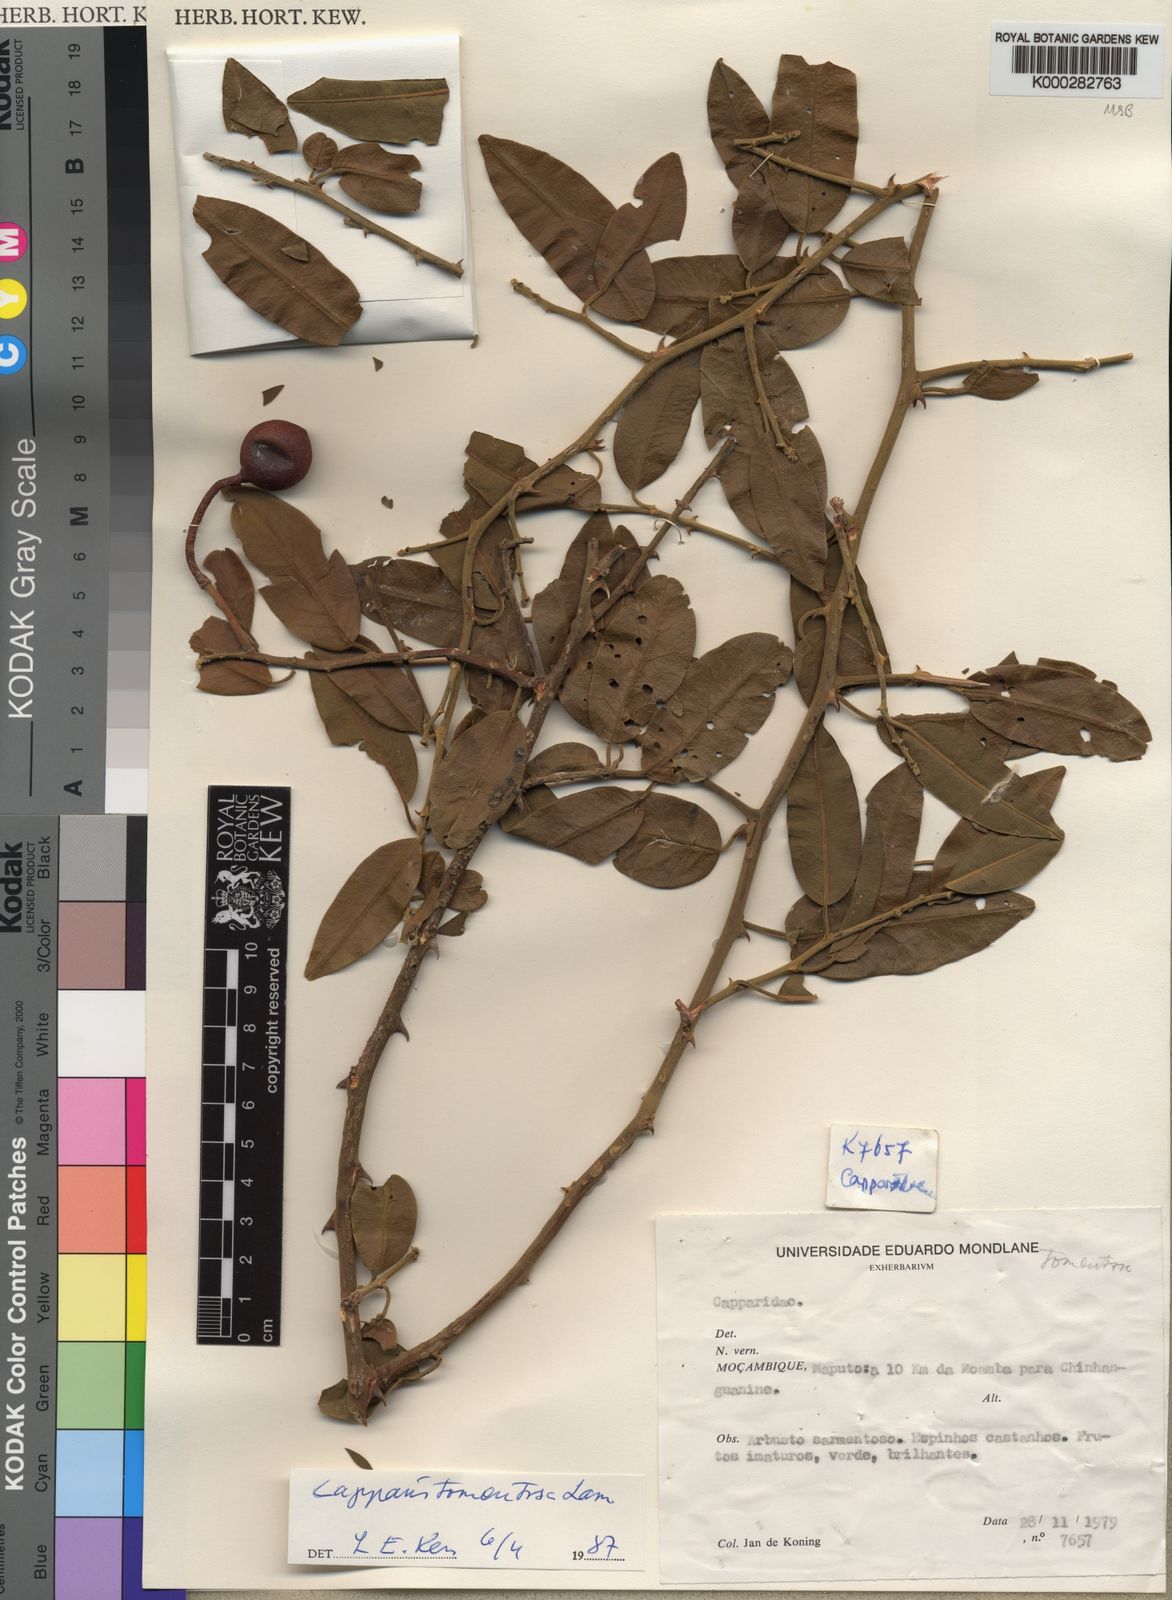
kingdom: Plantae
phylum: Tracheophyta
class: Magnoliopsida
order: Brassicales
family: Capparaceae
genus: Capparis
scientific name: Capparis tomentosa
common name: African caper
